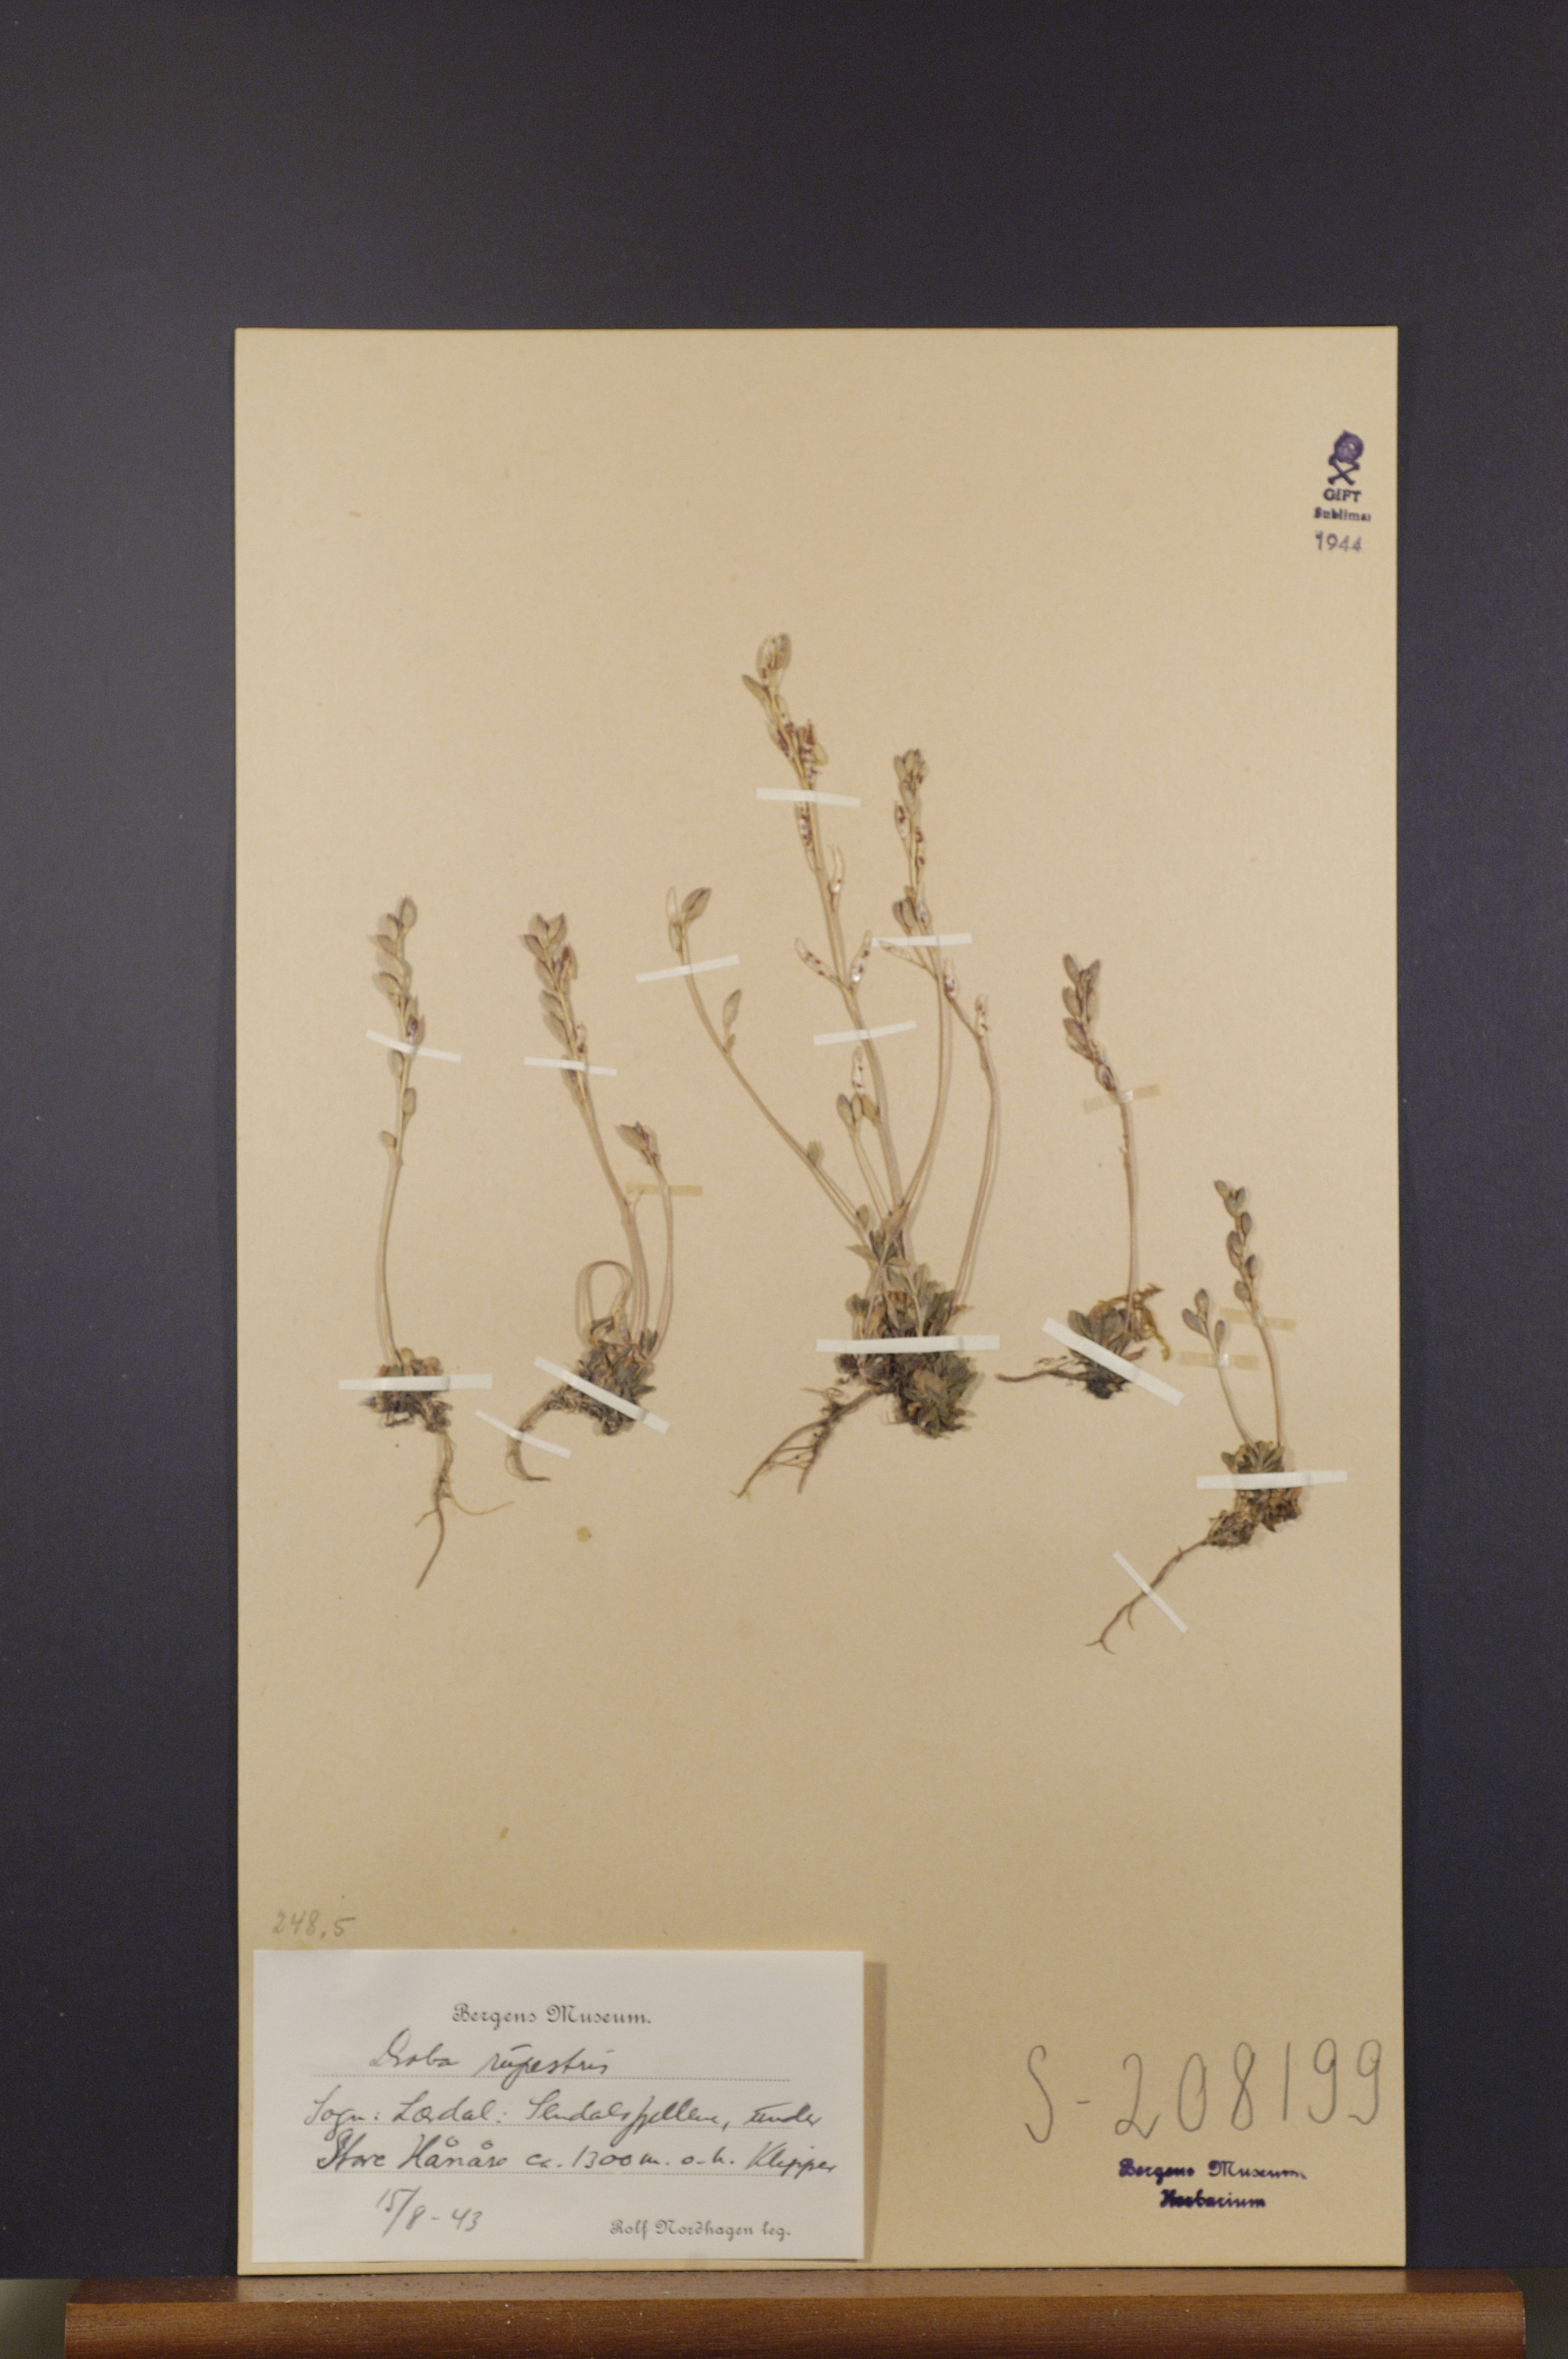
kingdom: Plantae
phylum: Tracheophyta
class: Magnoliopsida
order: Brassicales
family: Brassicaceae
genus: Draba
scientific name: Draba norvegica
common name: Rock whitlowgrass
